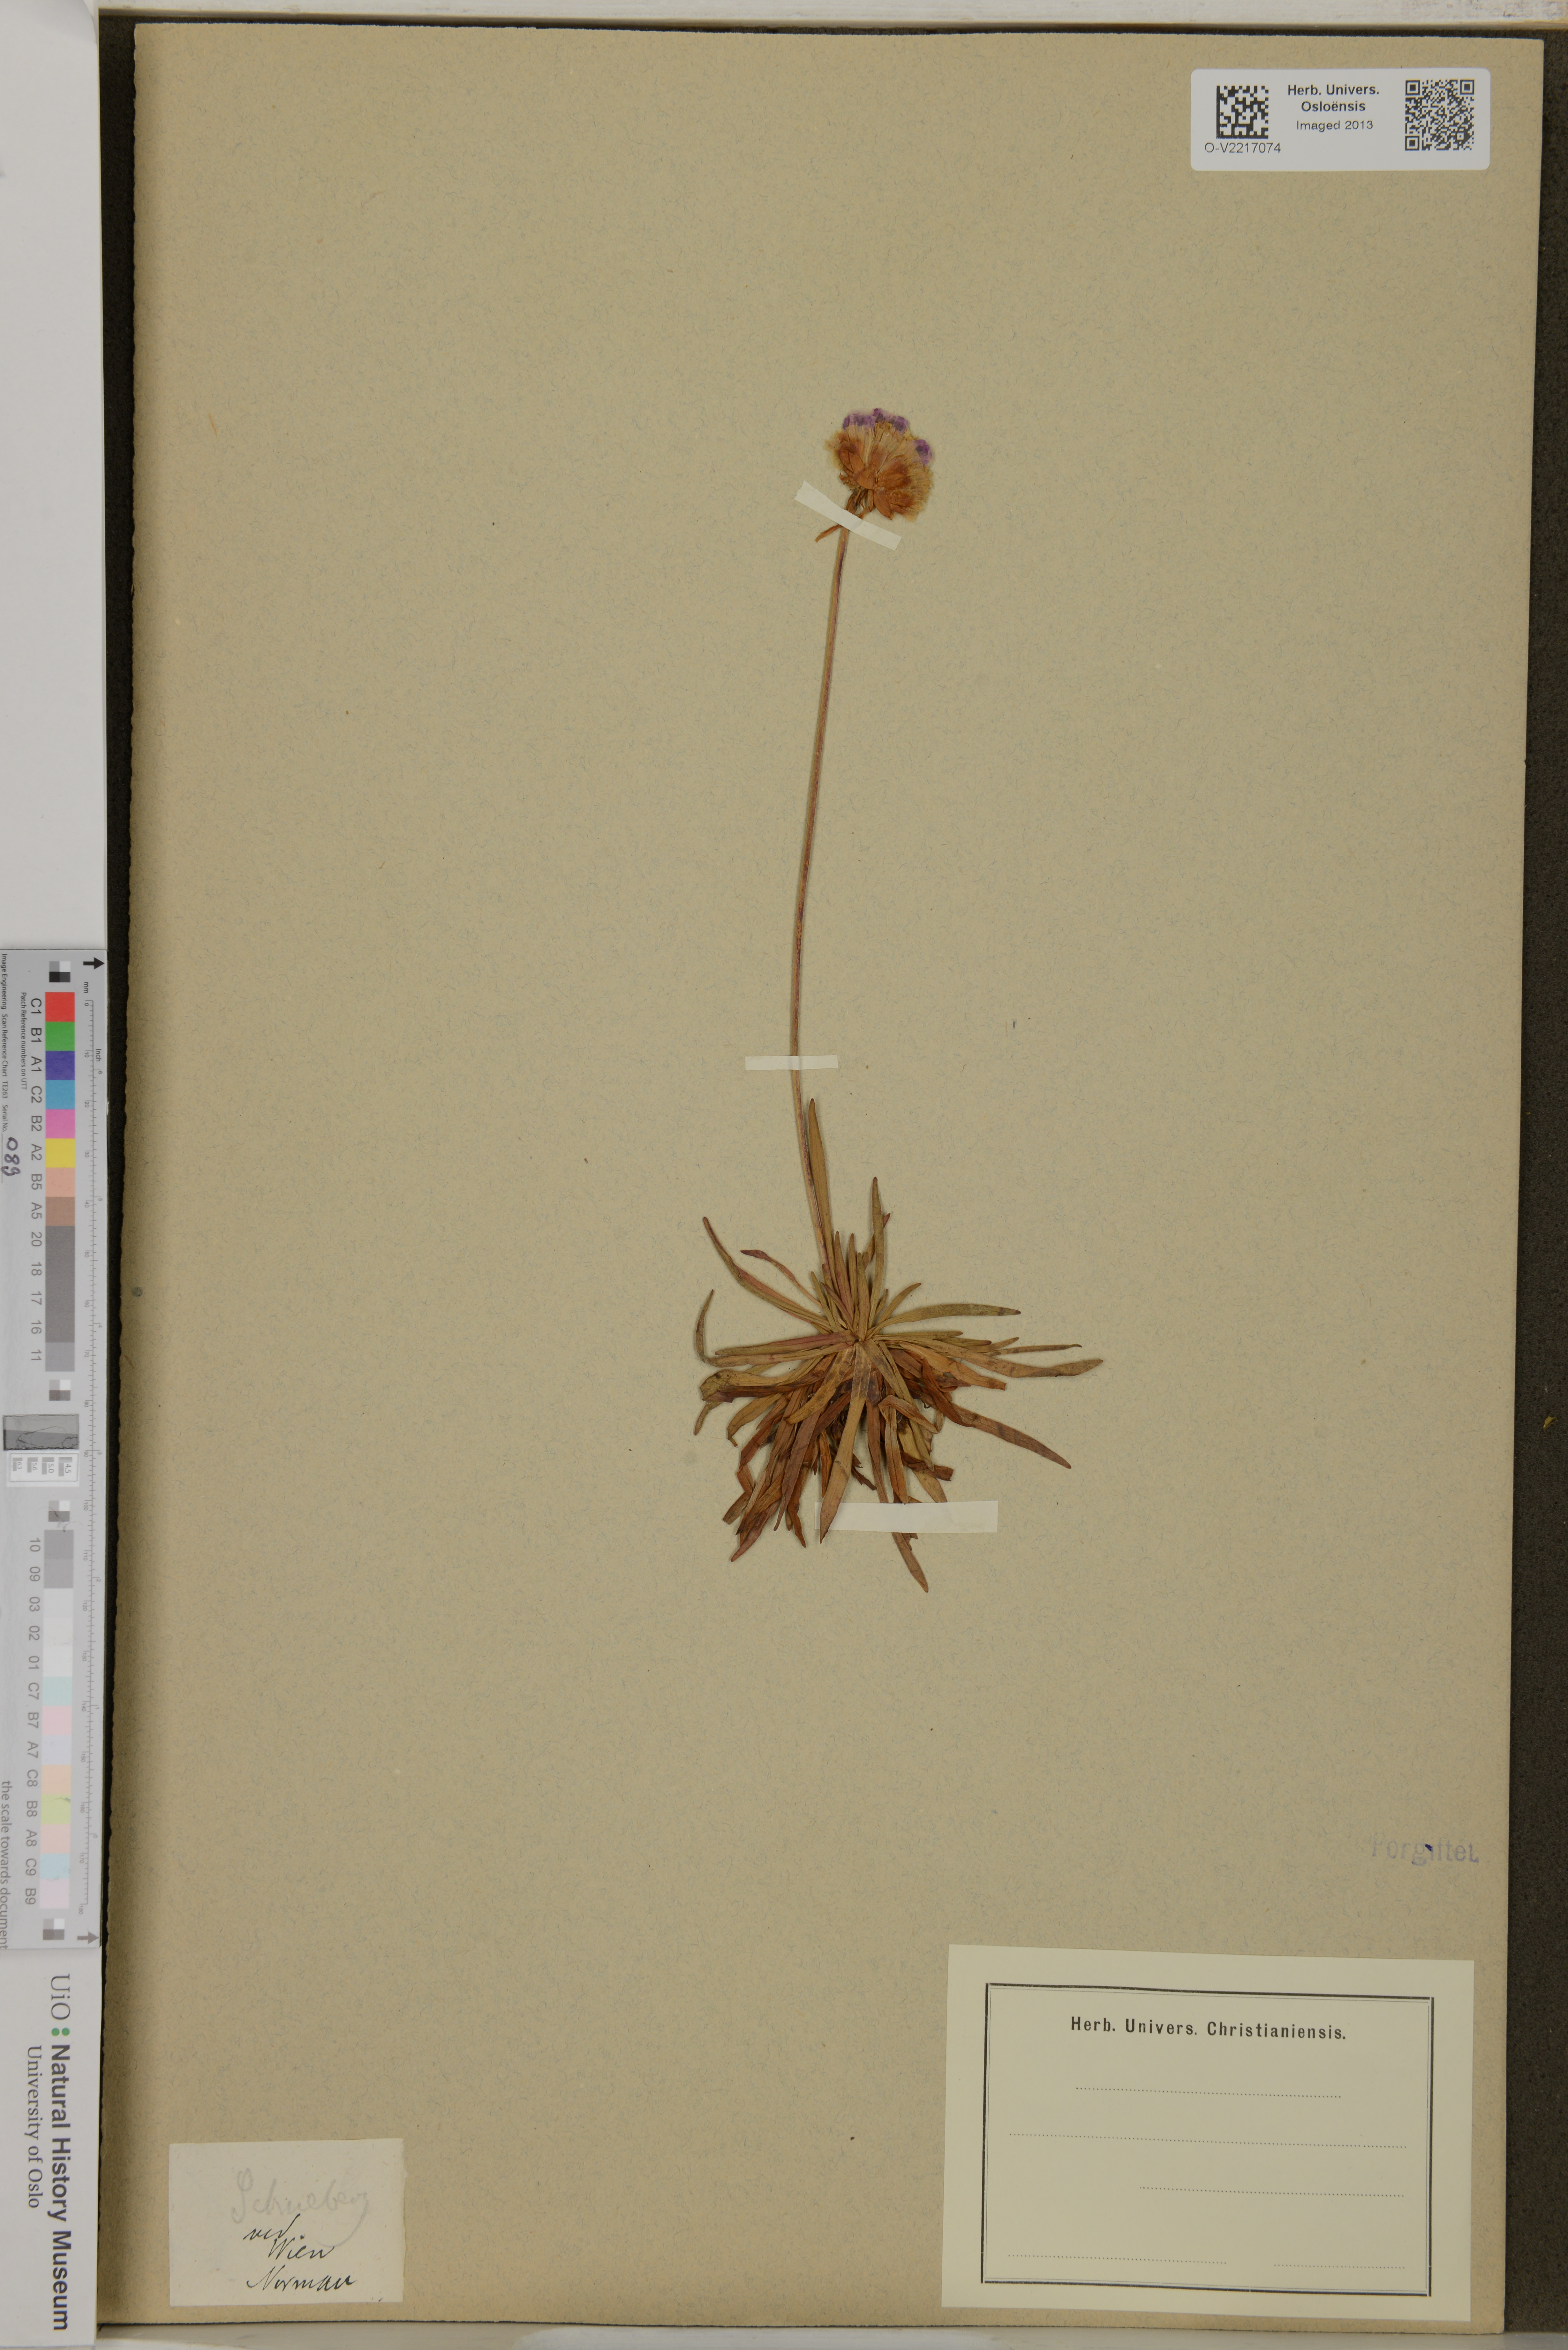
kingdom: Plantae
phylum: Tracheophyta
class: Magnoliopsida
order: Caryophyllales
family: Plumbaginaceae
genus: Armeria
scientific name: Armeria
